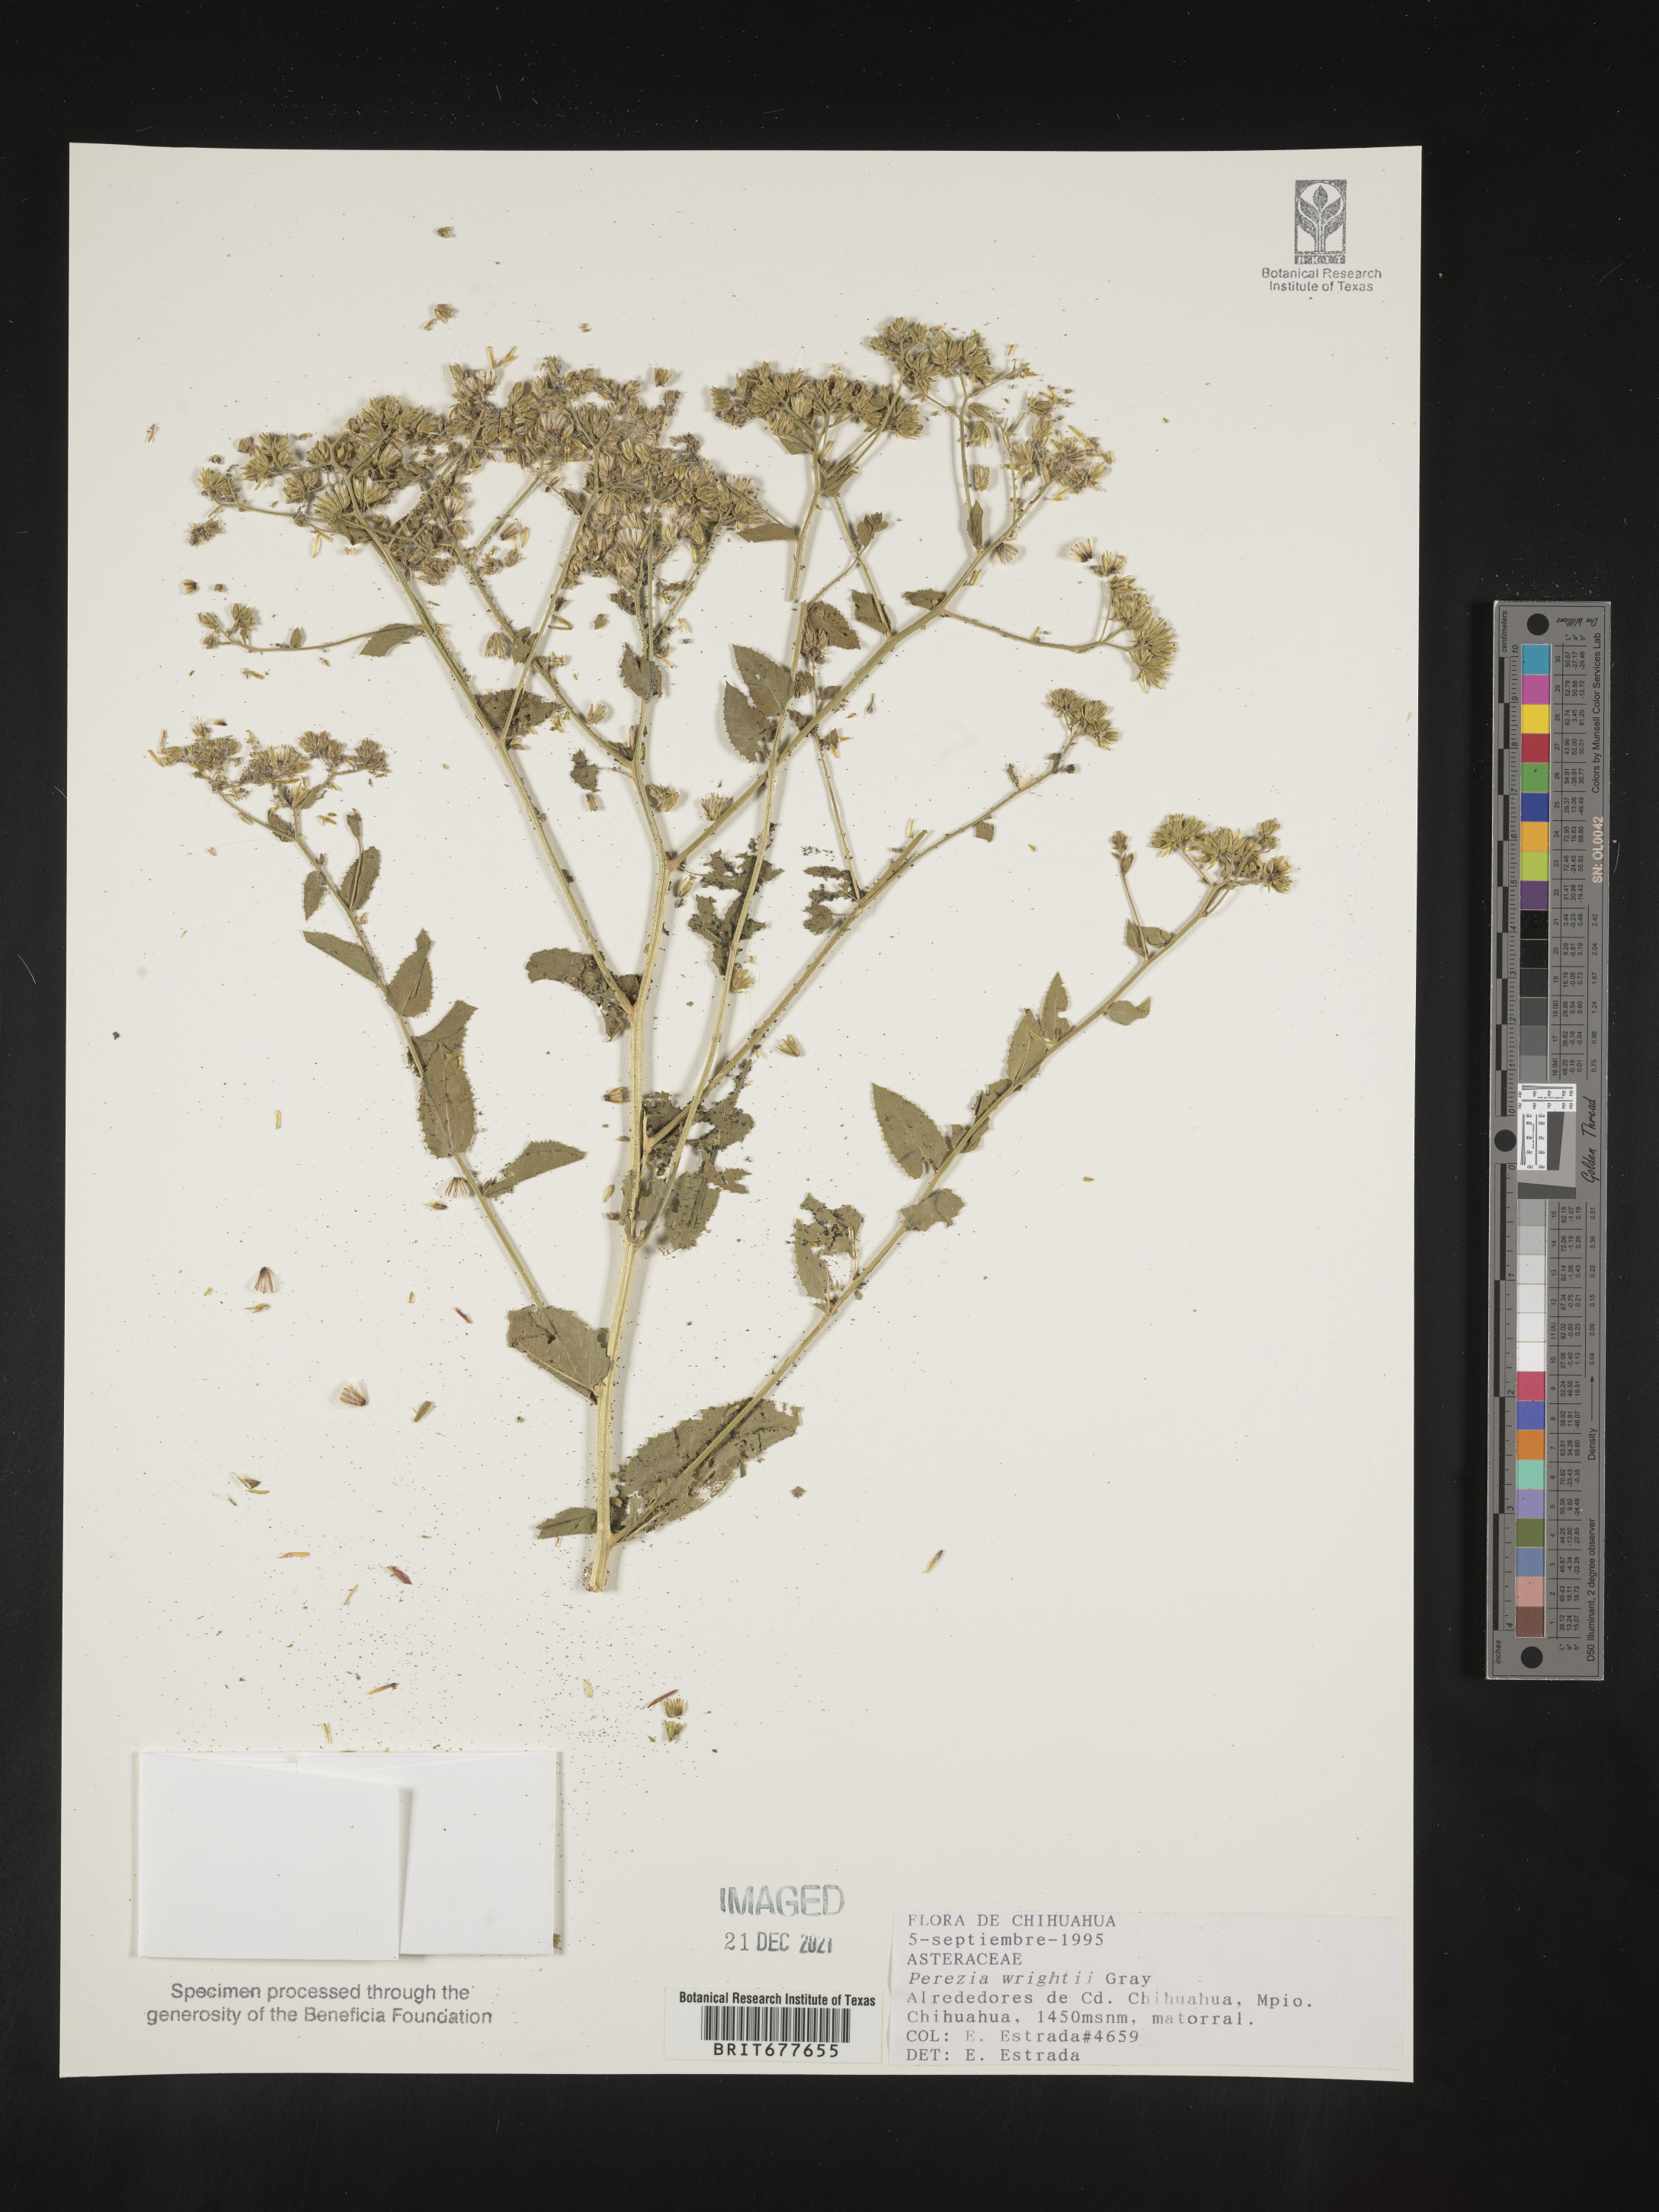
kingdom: Plantae
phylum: Tracheophyta
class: Magnoliopsida
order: Asterales
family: Asteraceae
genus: Perezia
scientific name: Perezia
